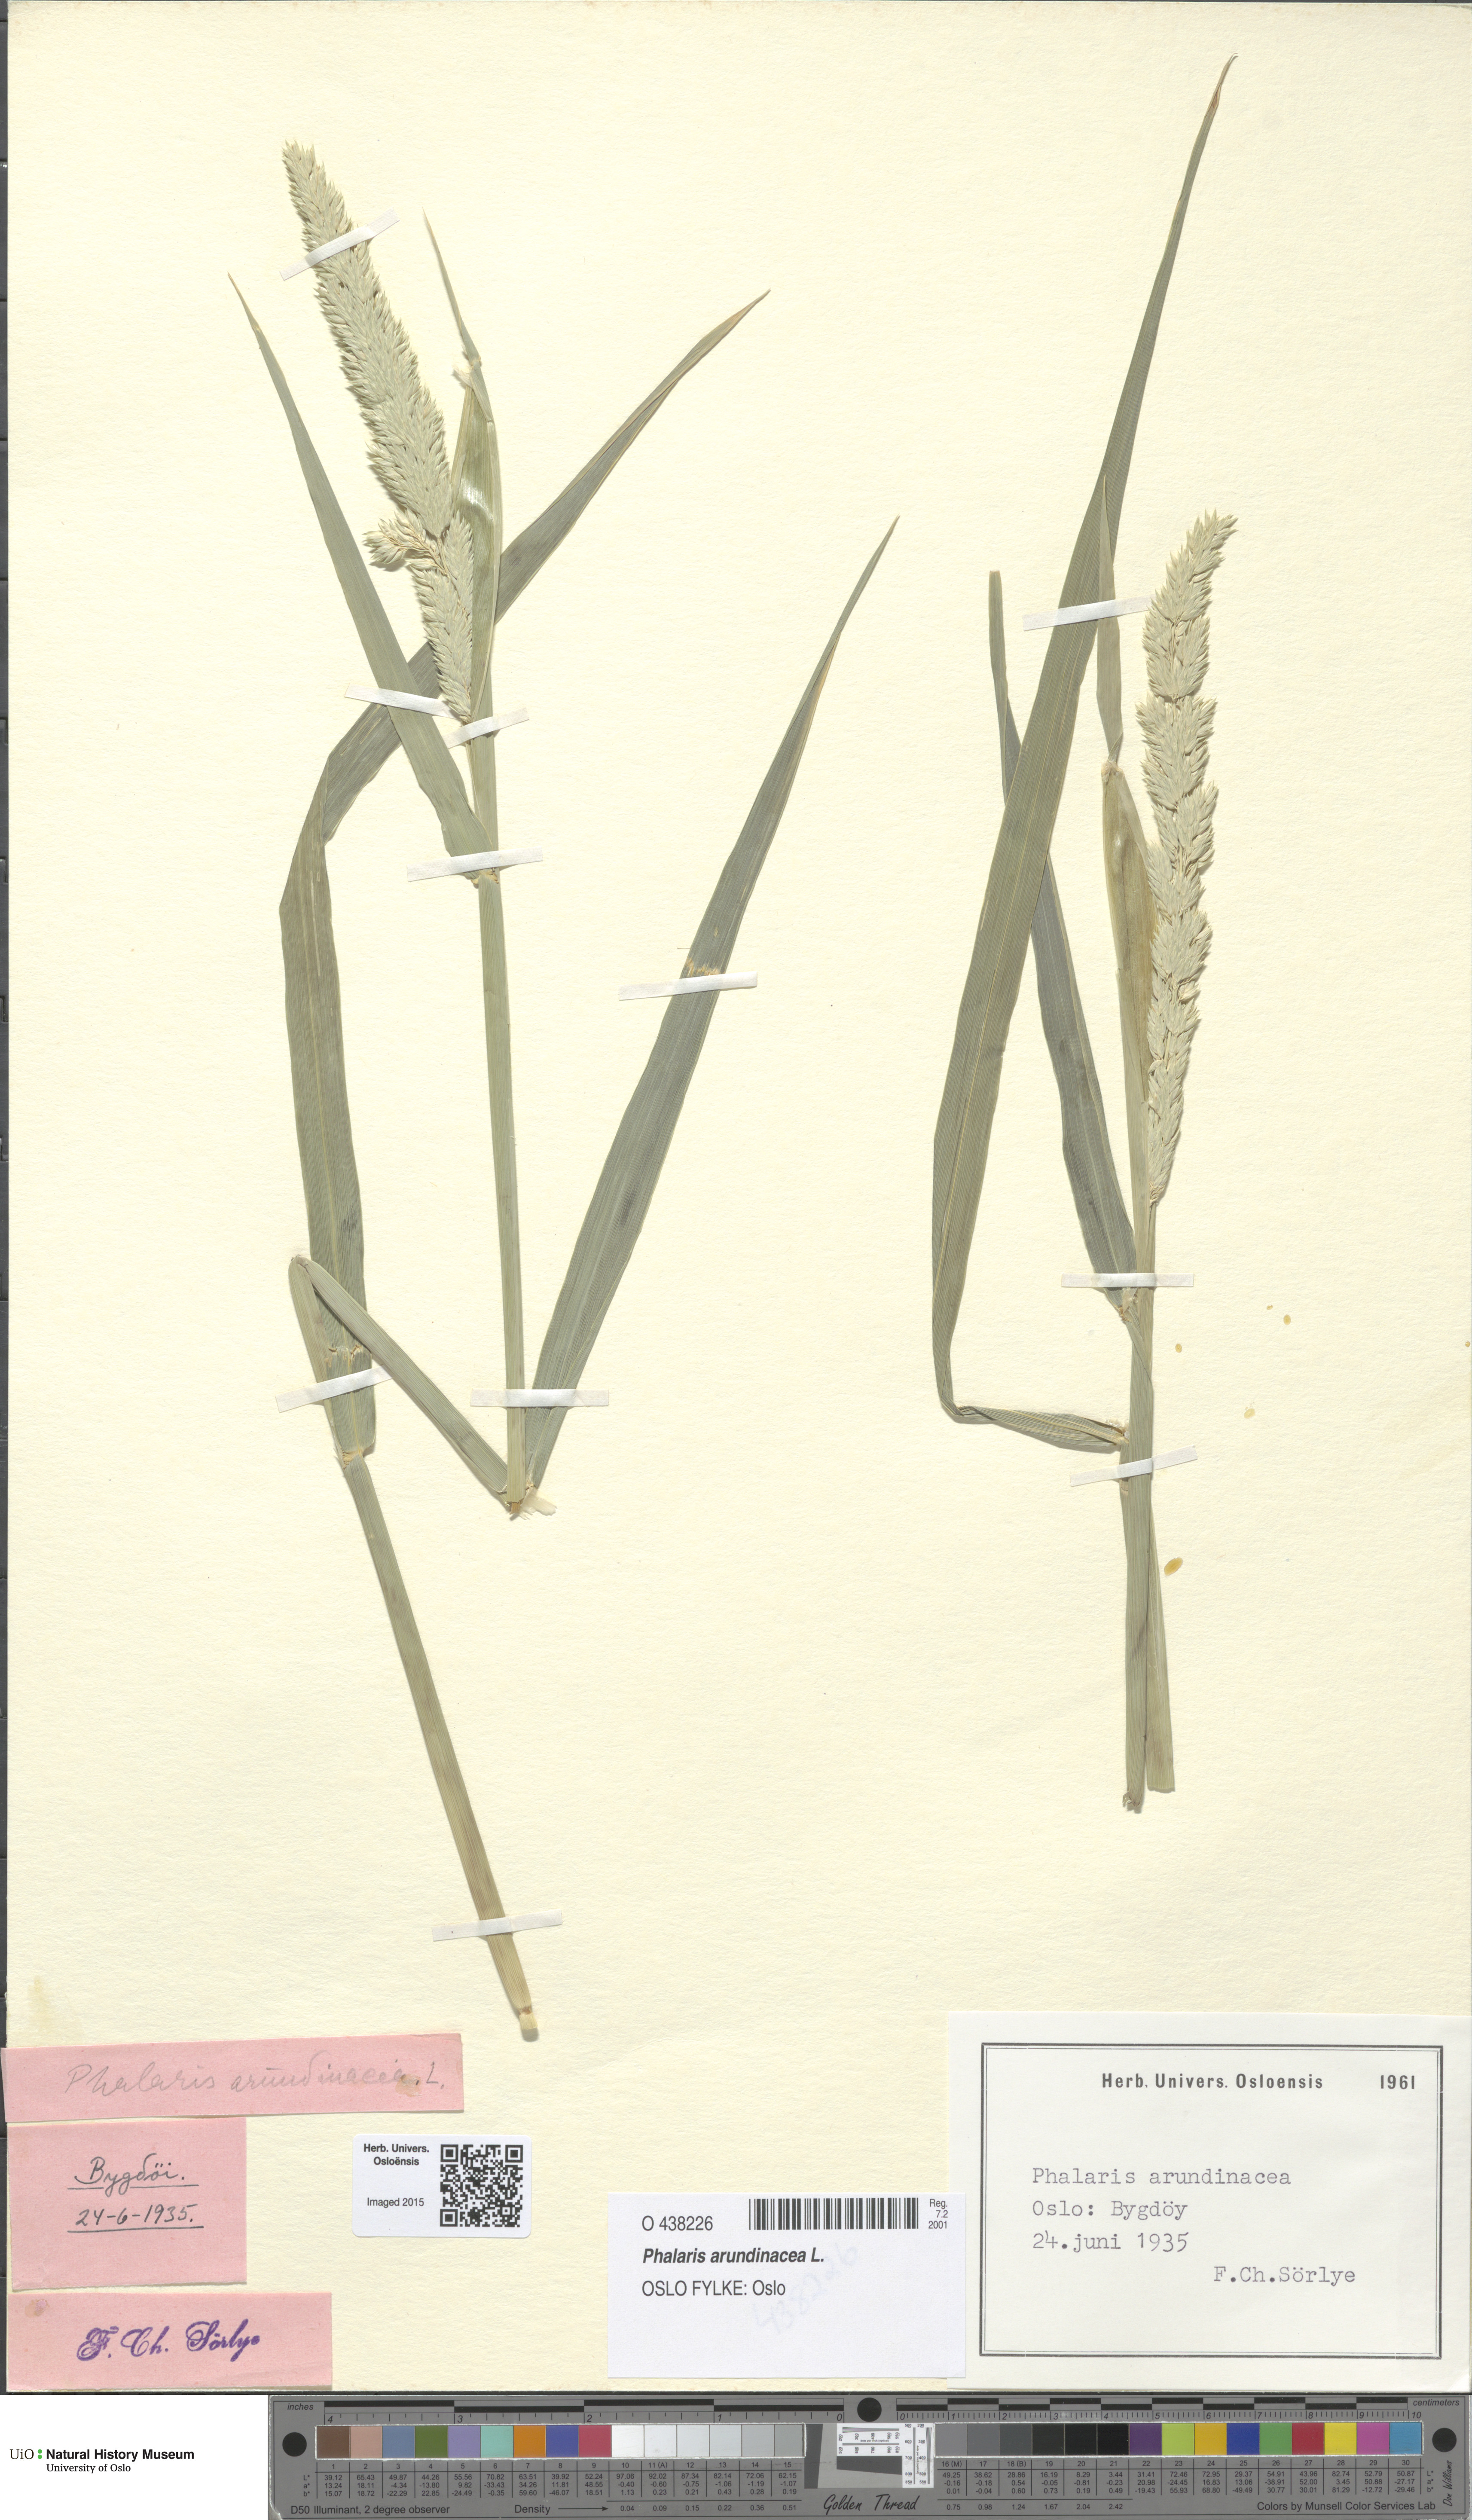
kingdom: Plantae
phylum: Tracheophyta
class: Liliopsida
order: Poales
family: Poaceae
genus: Phalaris
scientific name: Phalaris arundinacea
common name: Reed canary-grass
